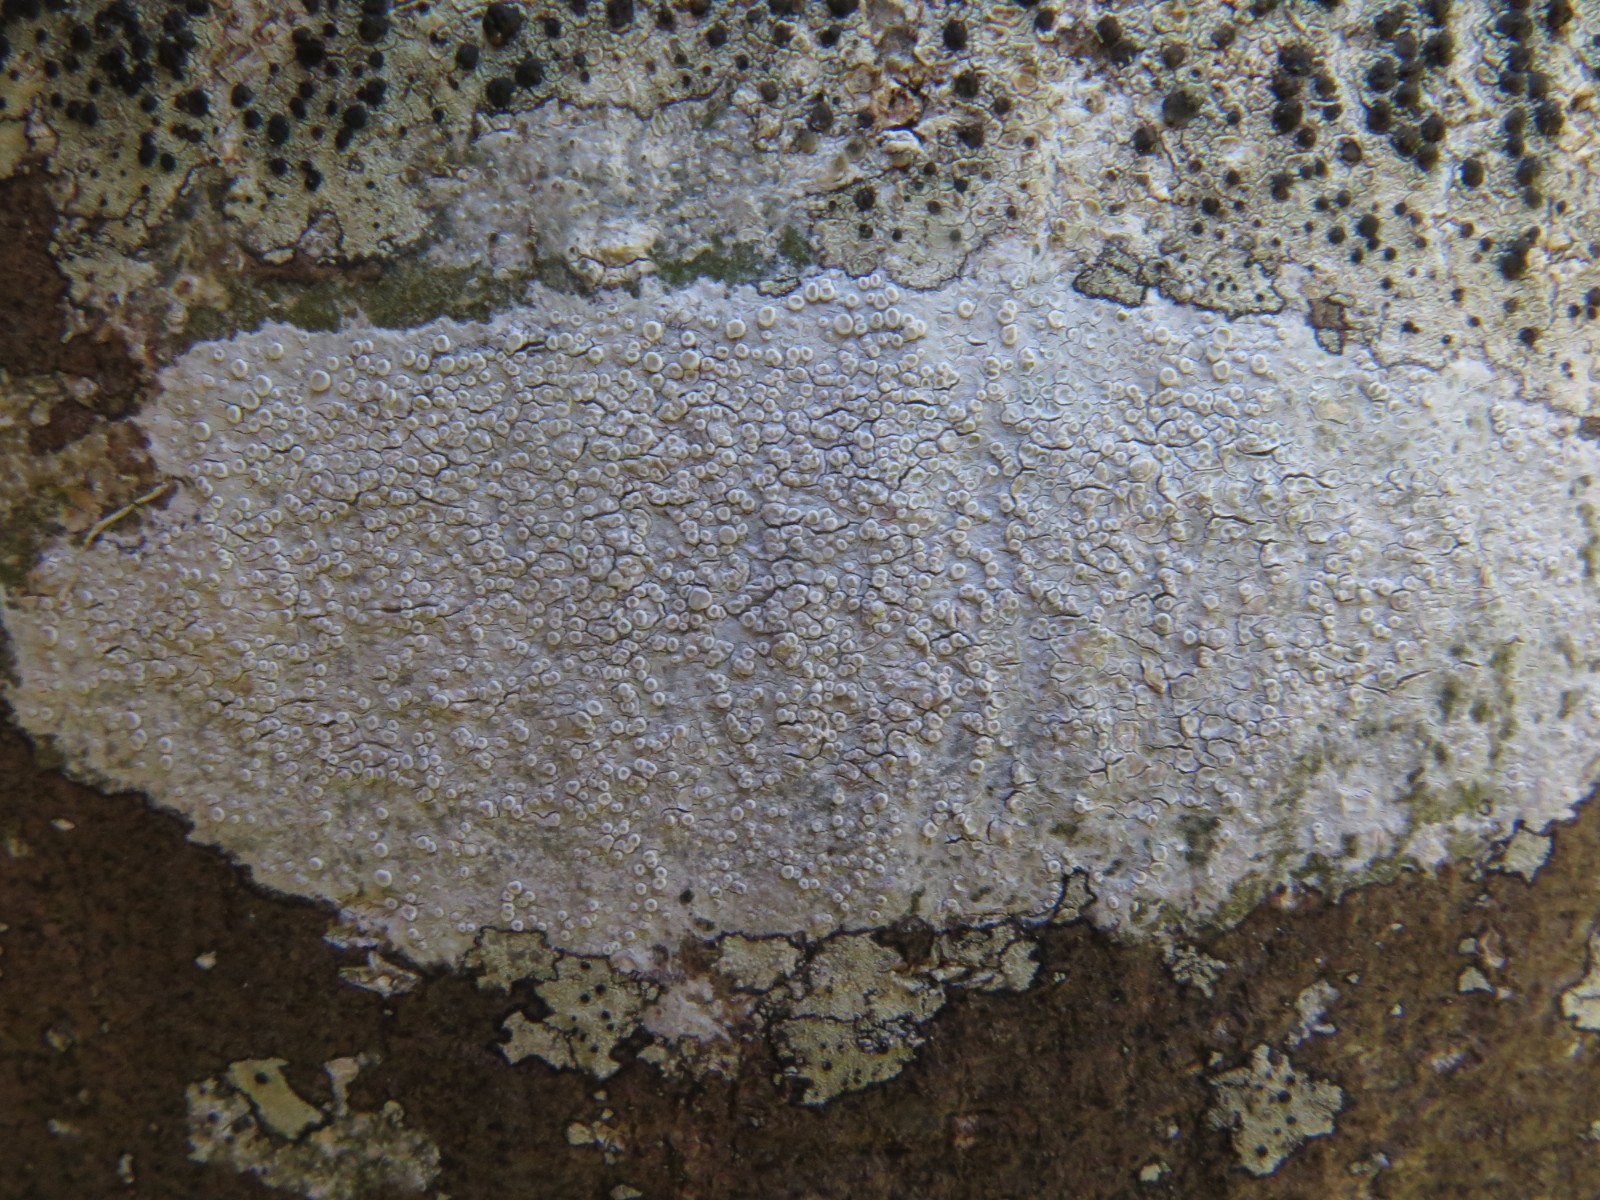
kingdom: Fungi
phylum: Ascomycota
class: Lecanoromycetes
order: Lecanorales
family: Lecanoraceae
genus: Glaucomaria
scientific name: Glaucomaria carpinea
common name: hviddugget kantskivelav
